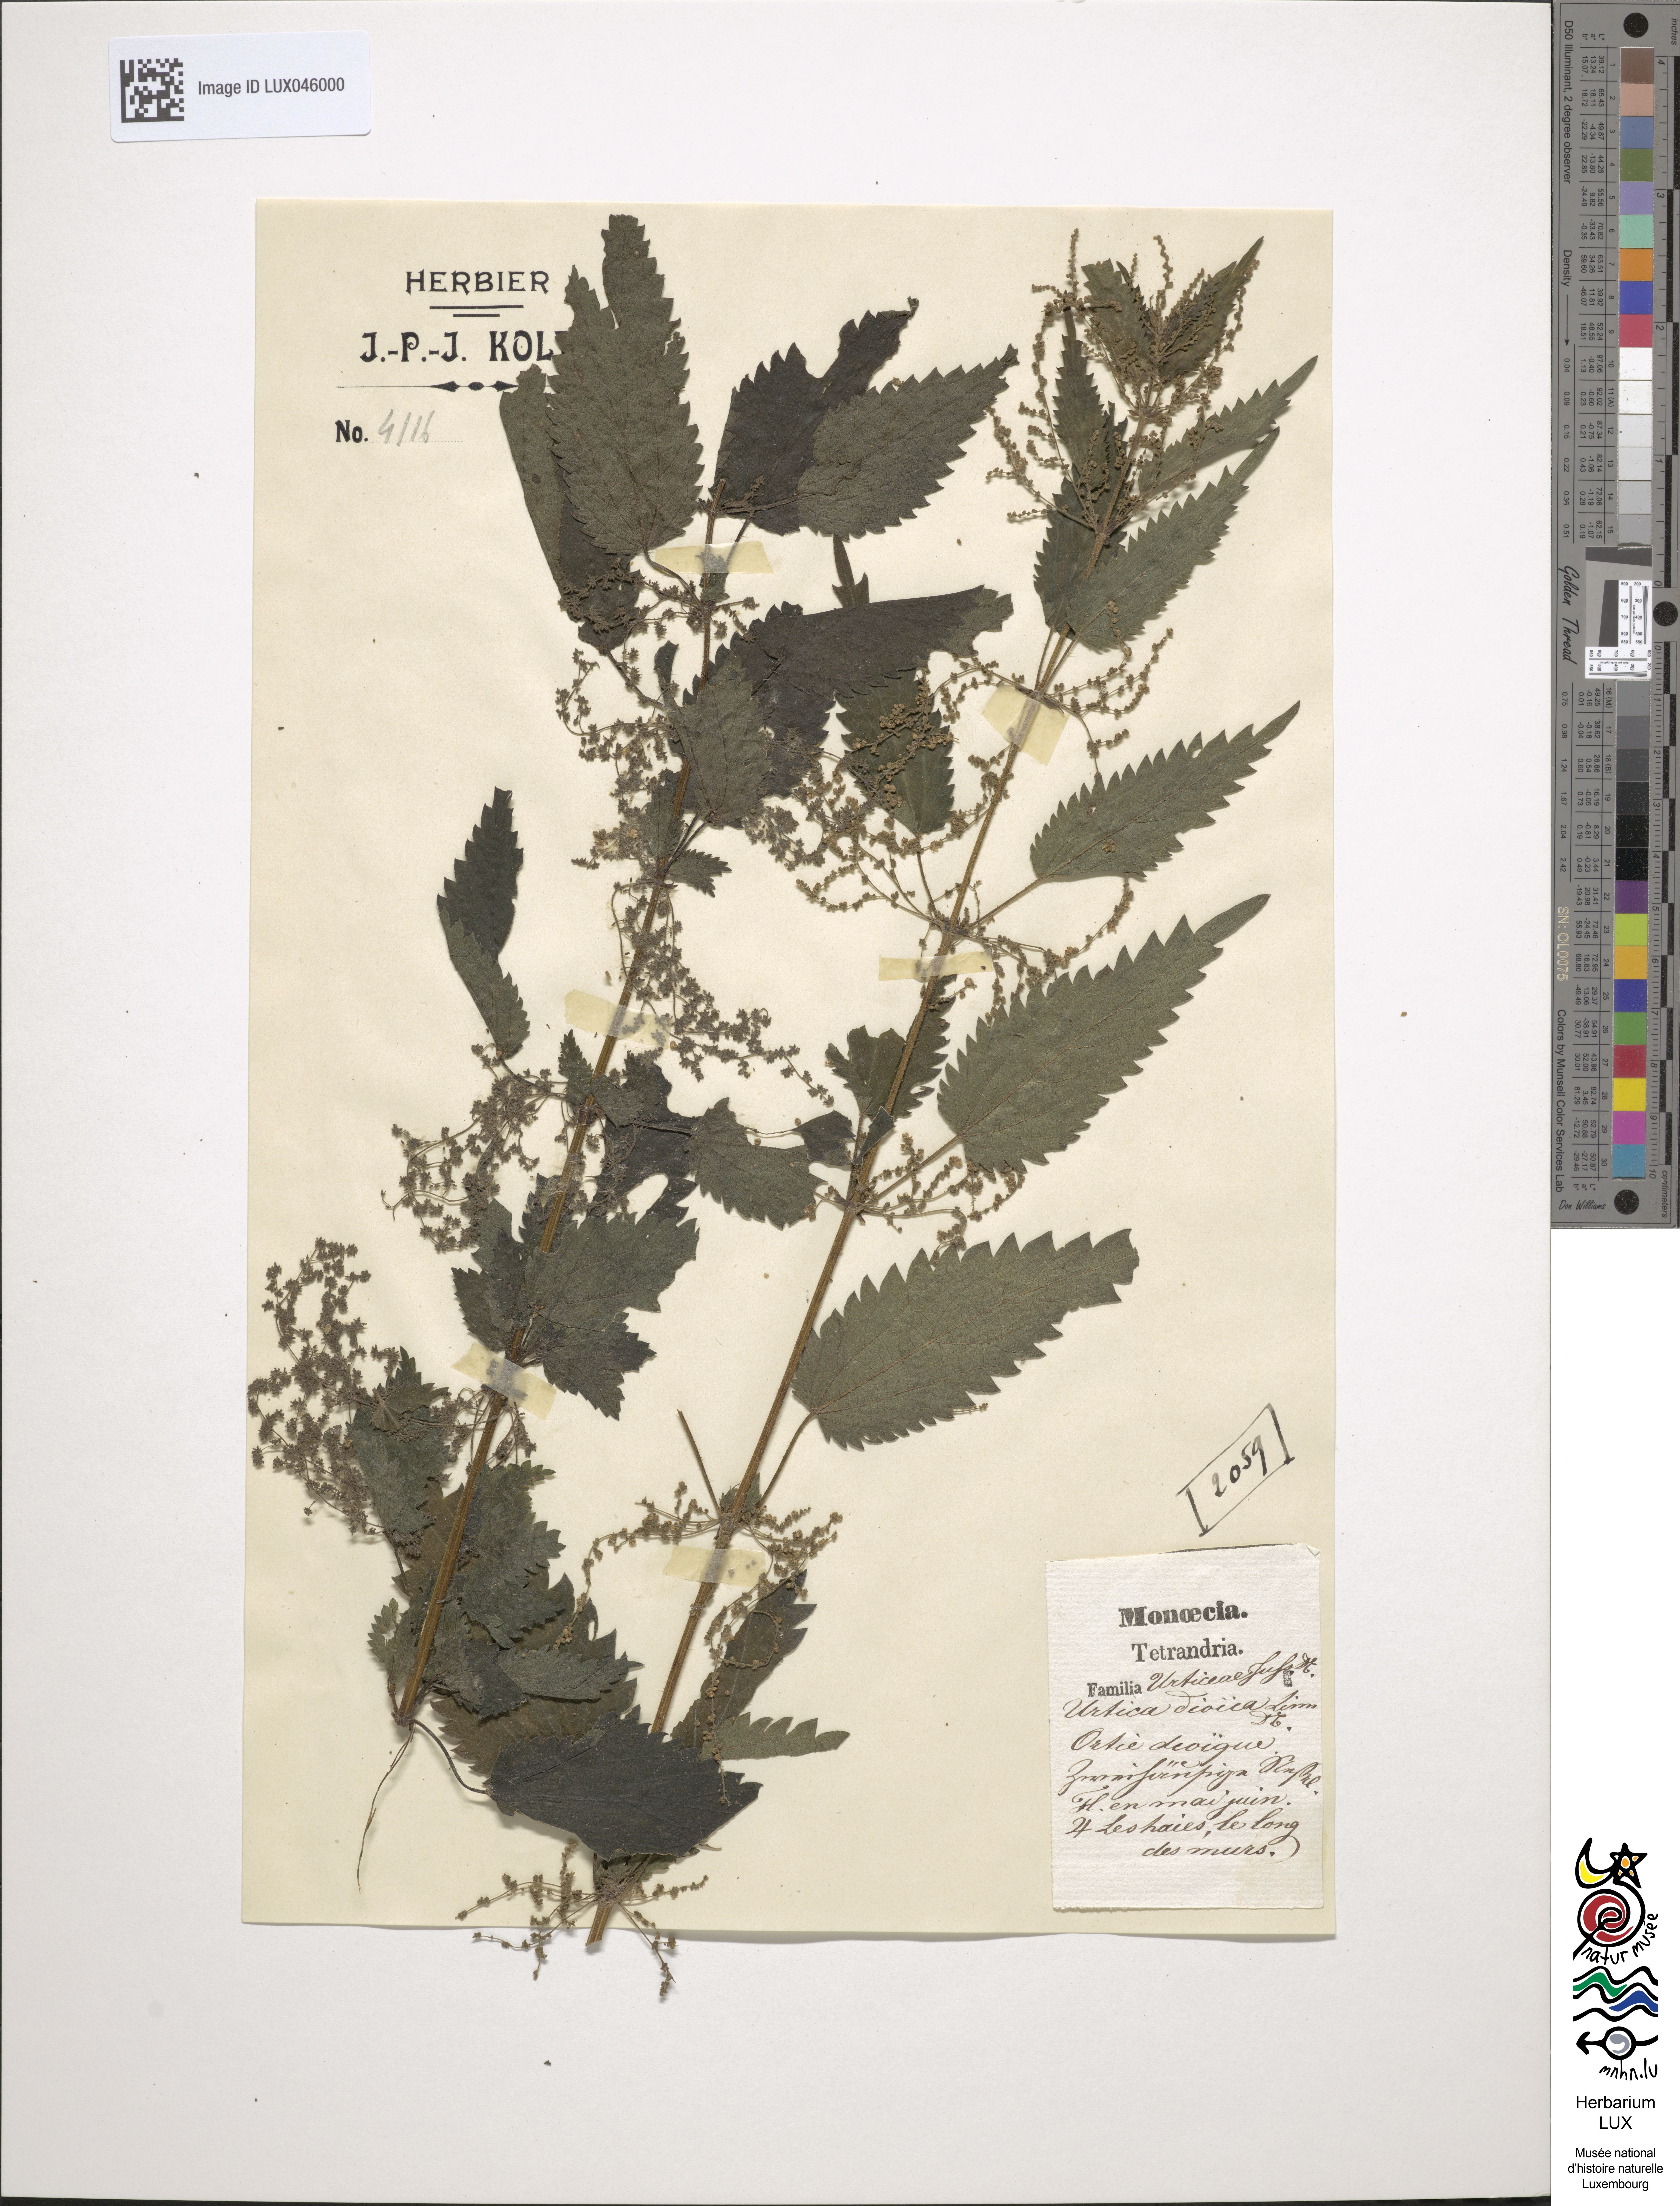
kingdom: Plantae
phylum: Tracheophyta
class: Magnoliopsida
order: Rosales
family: Urticaceae
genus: Urtica
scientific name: Urtica dioica
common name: Common nettle
